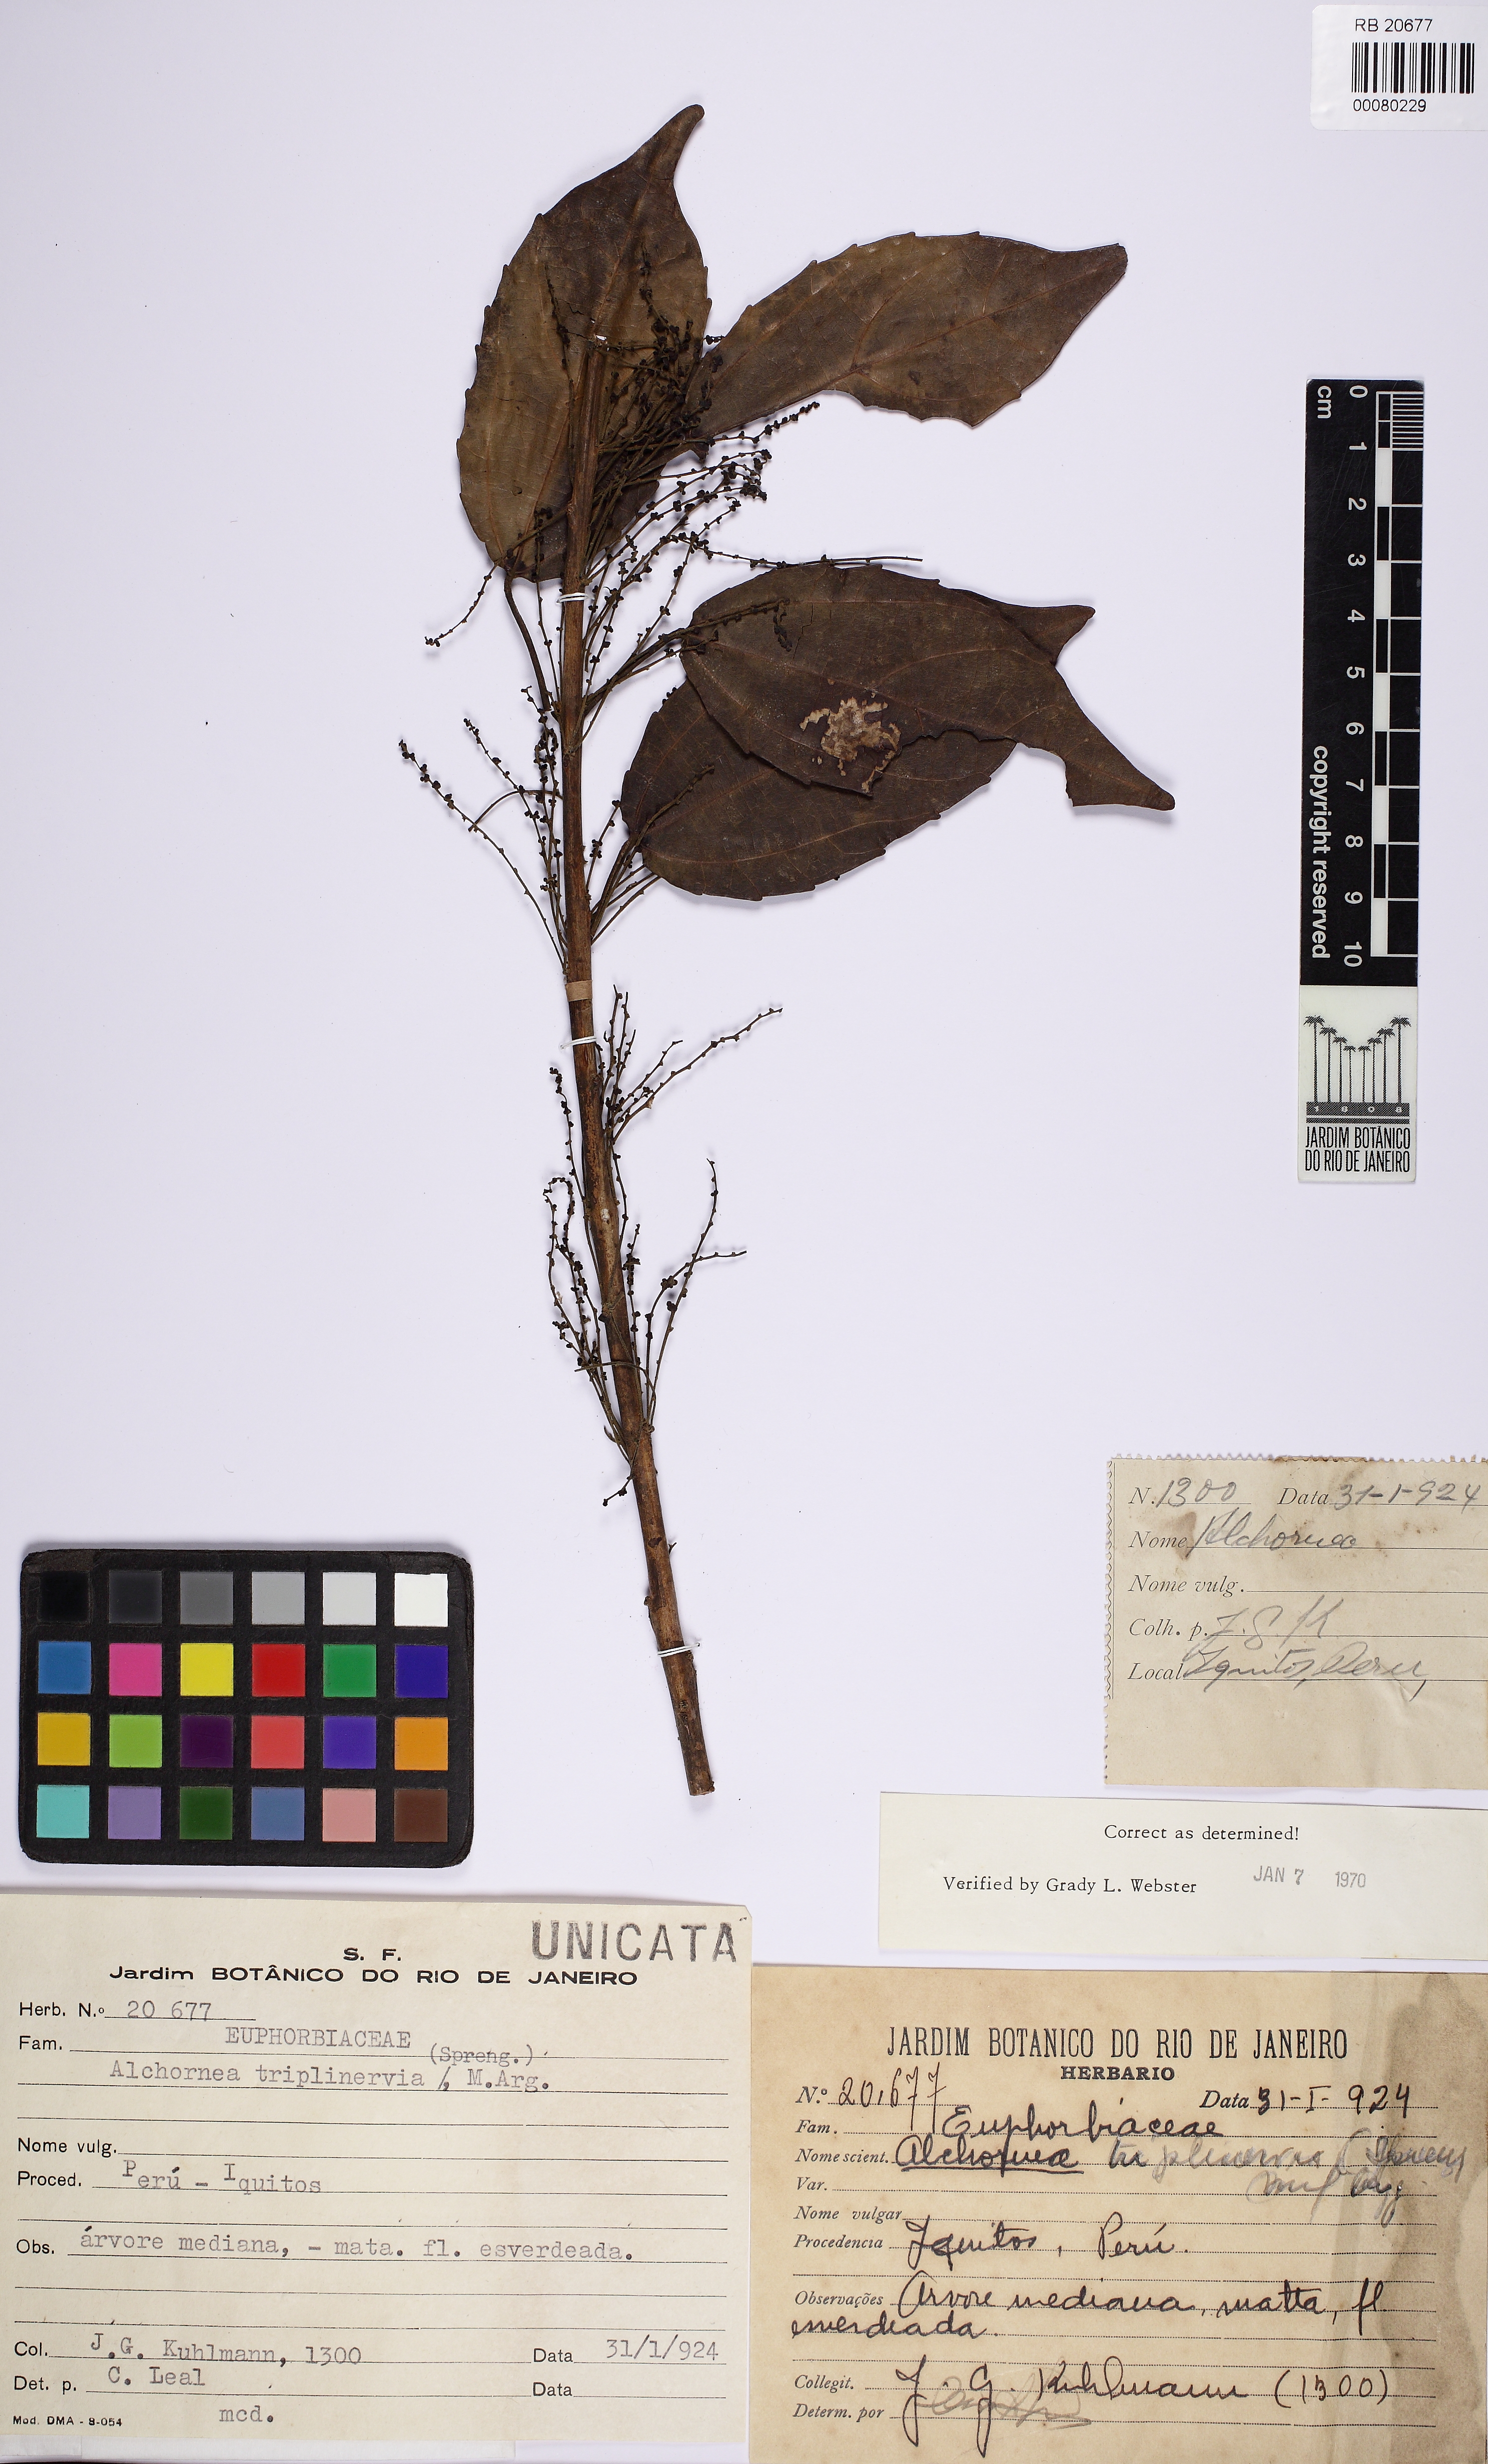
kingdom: Plantae
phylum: Tracheophyta
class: Magnoliopsida
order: Malpighiales
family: Euphorbiaceae
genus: Alchornea
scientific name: Alchornea triplinervia
